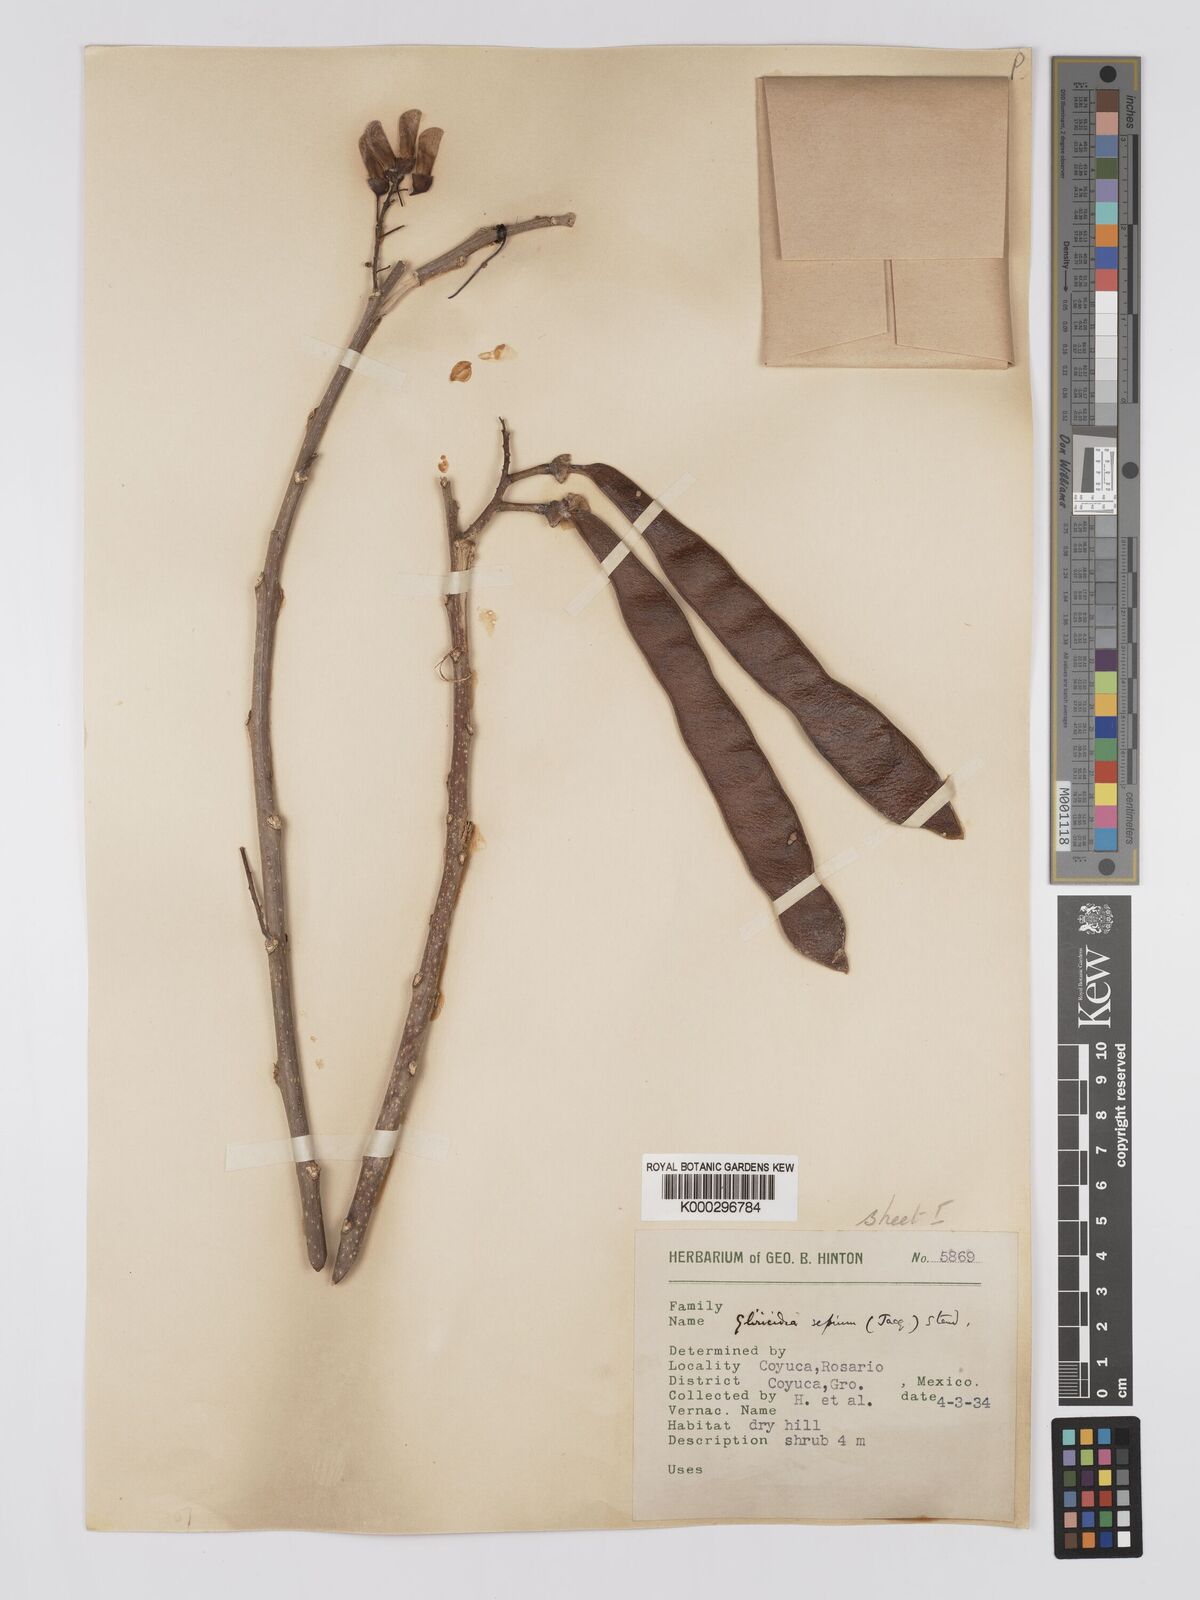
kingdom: Plantae
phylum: Tracheophyta
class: Magnoliopsida
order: Fabales
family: Fabaceae
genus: Gliricidia
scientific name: Gliricidia sepium
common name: Quickstick
